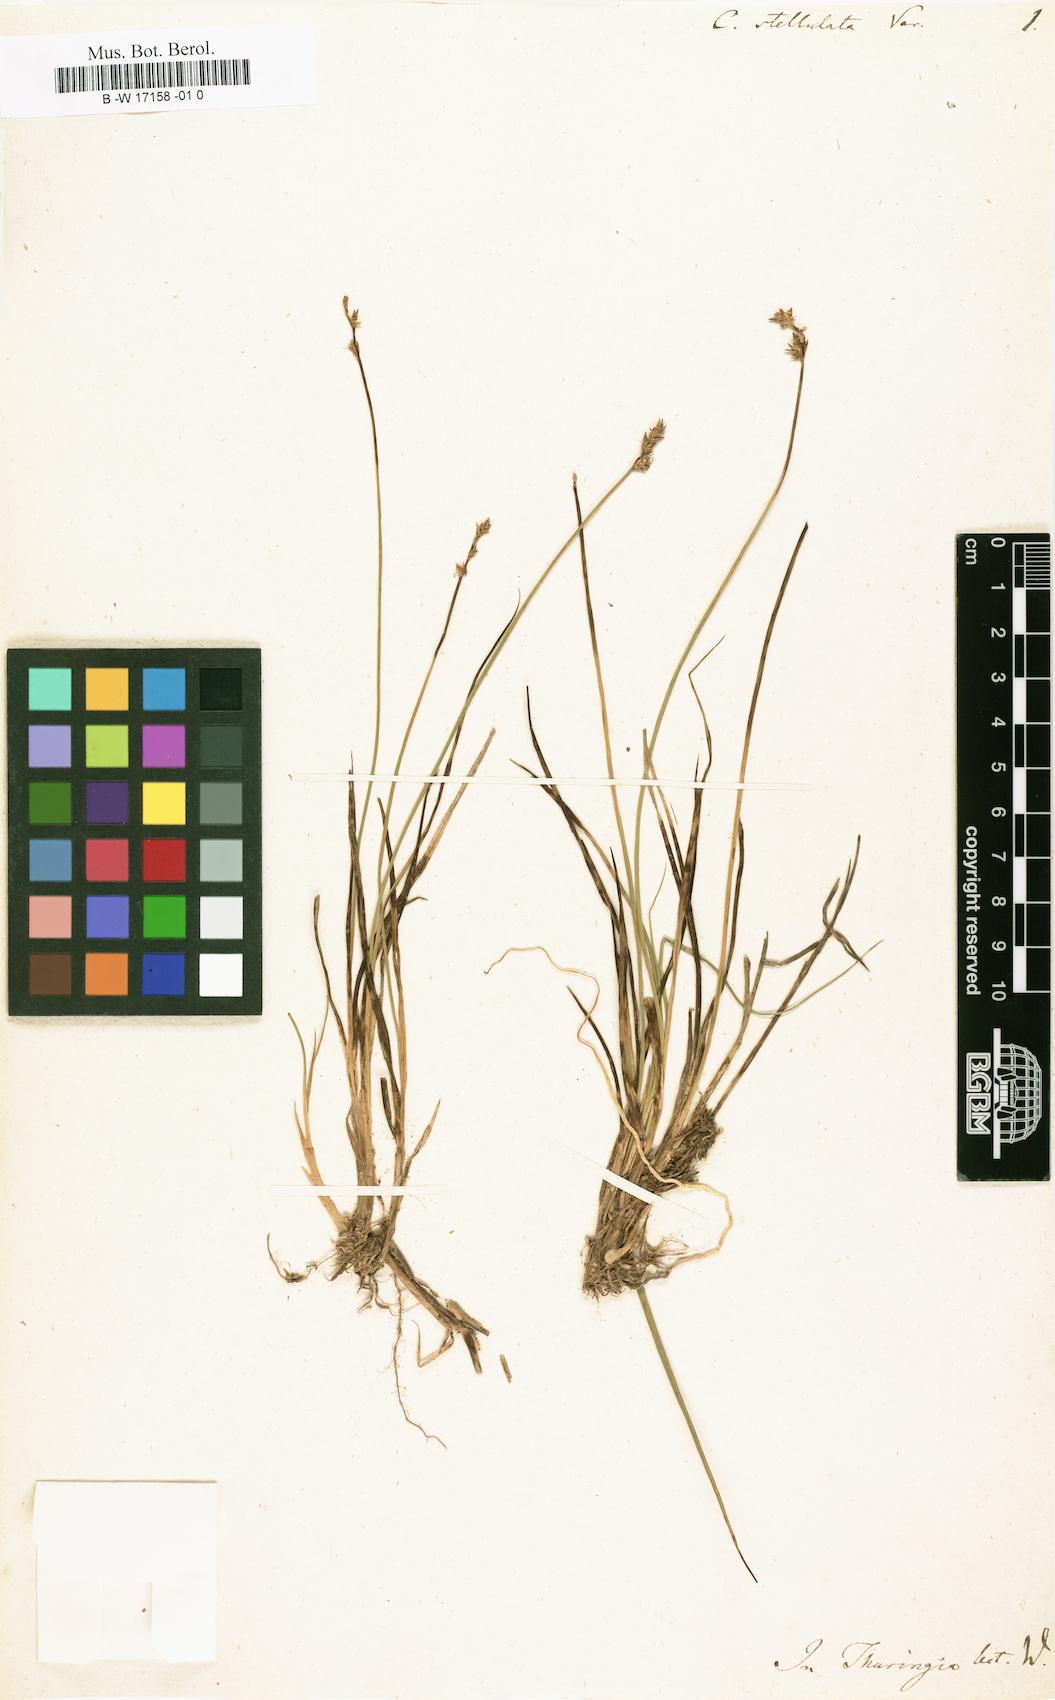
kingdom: Plantae
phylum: Tracheophyta
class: Liliopsida
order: Poales
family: Cyperaceae
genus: Carex
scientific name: Carex
